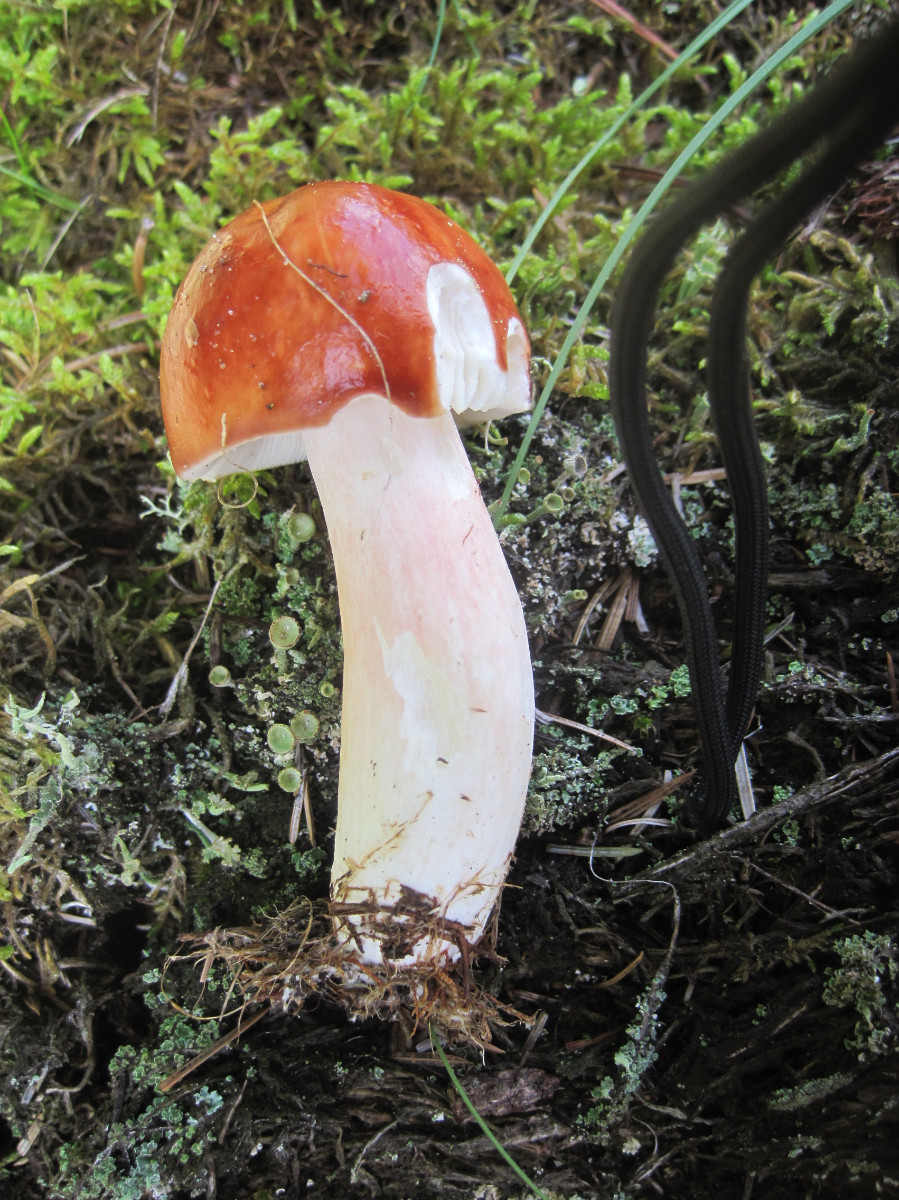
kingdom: Fungi
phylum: Basidiomycota
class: Agaricomycetes
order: Russulales
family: Russulaceae
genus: Russula
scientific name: Russula paludosa
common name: prægtig skørhat
